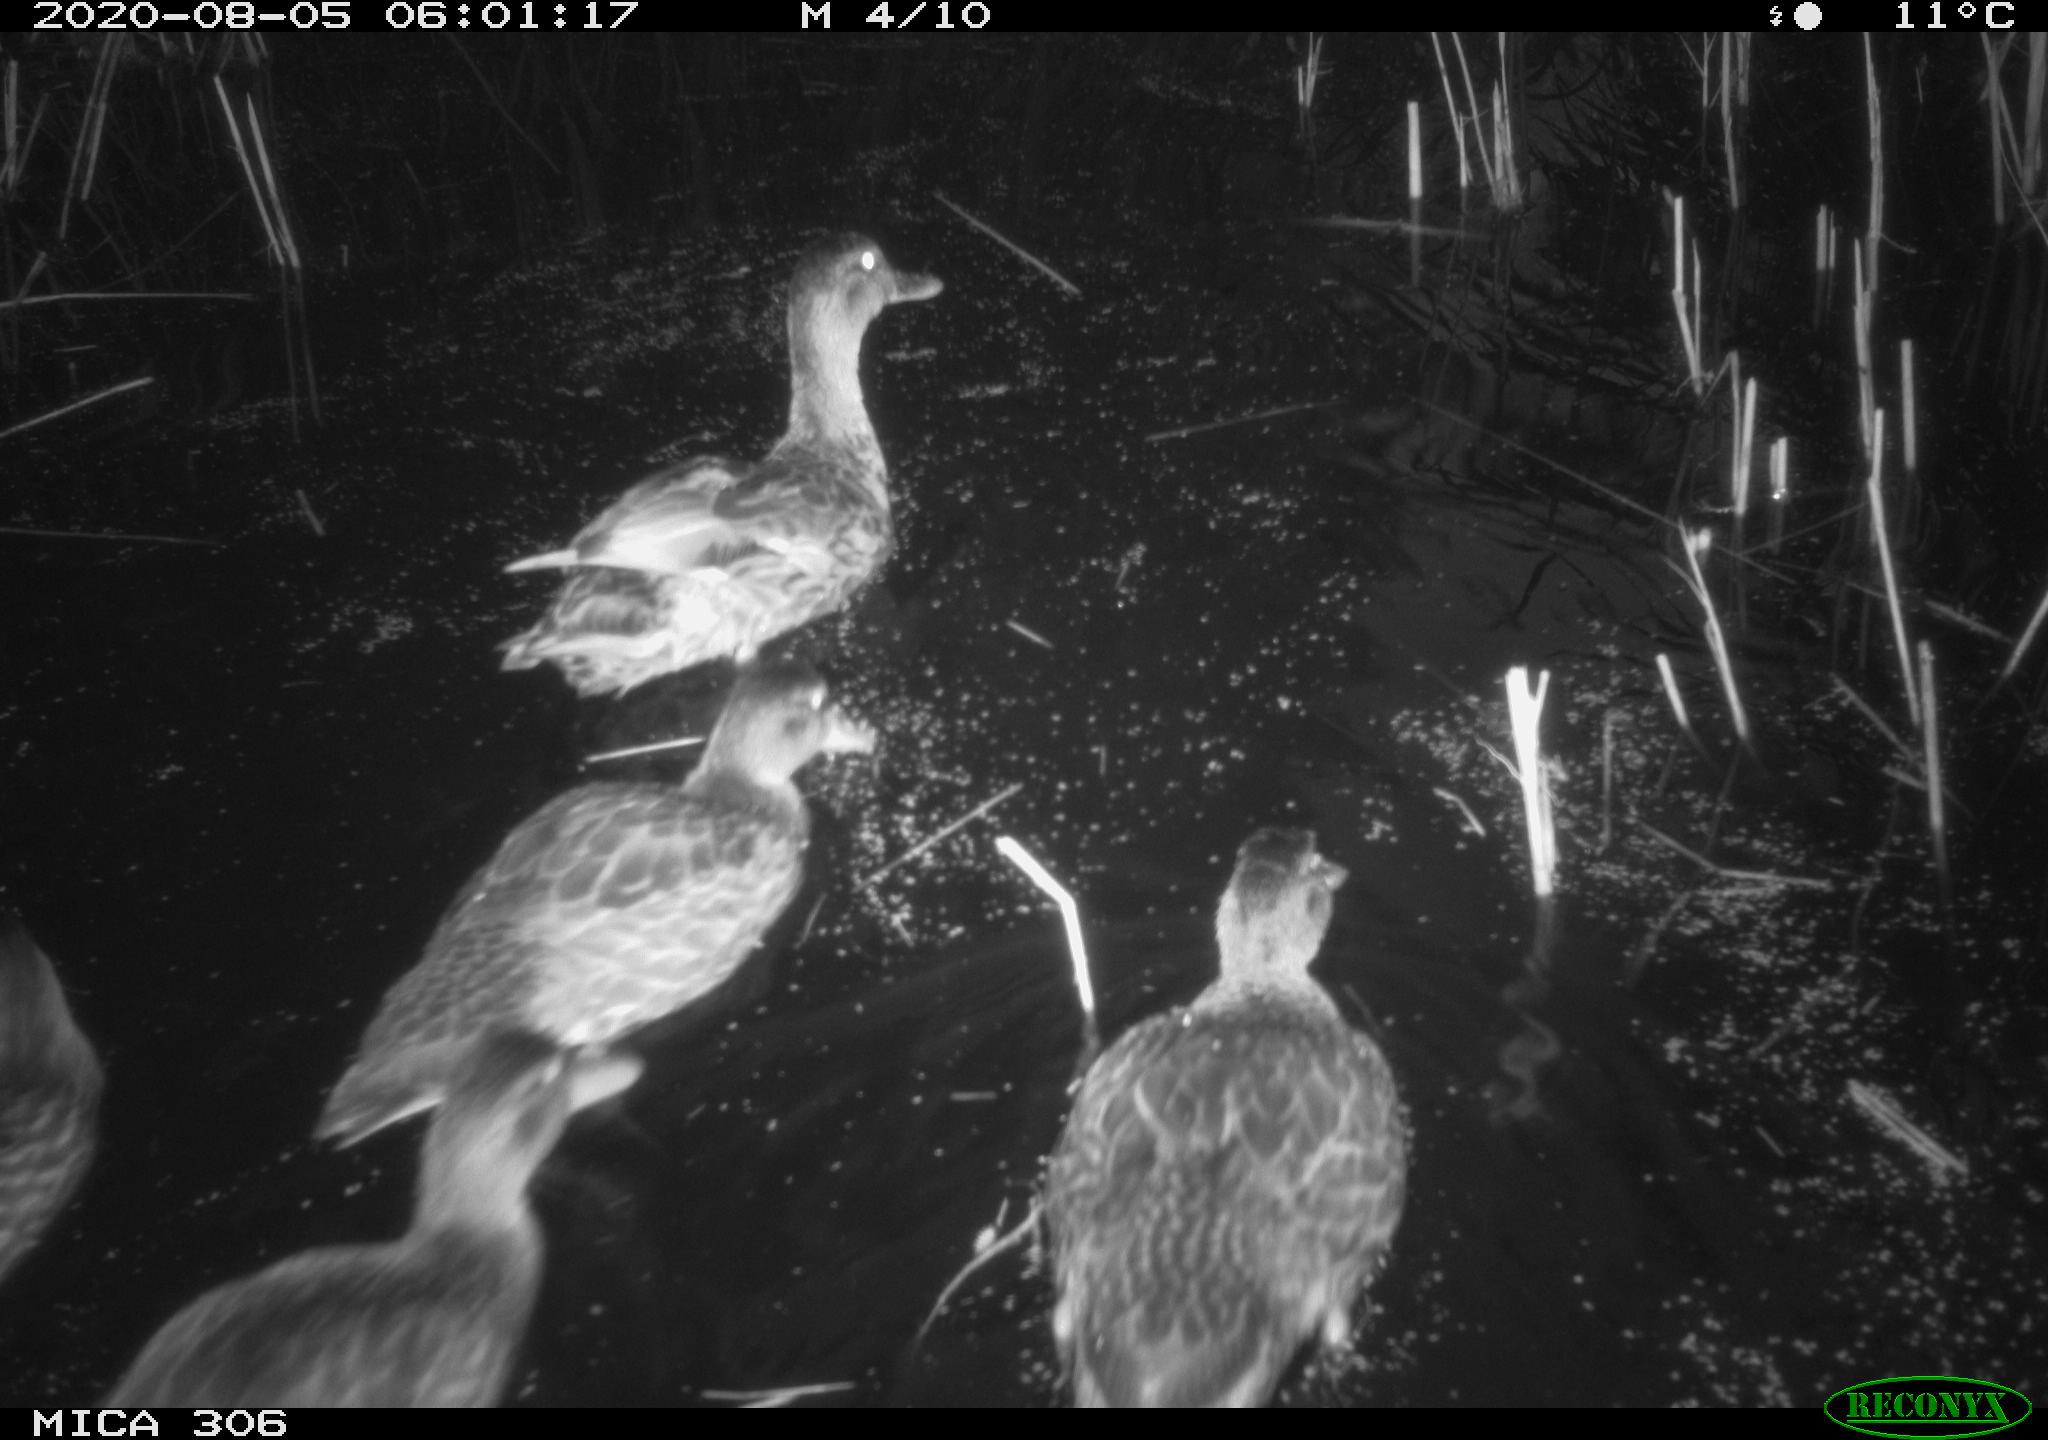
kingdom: Animalia
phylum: Chordata
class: Aves
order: Anseriformes
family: Anatidae
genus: Anas
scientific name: Anas platyrhynchos
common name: Mallard
